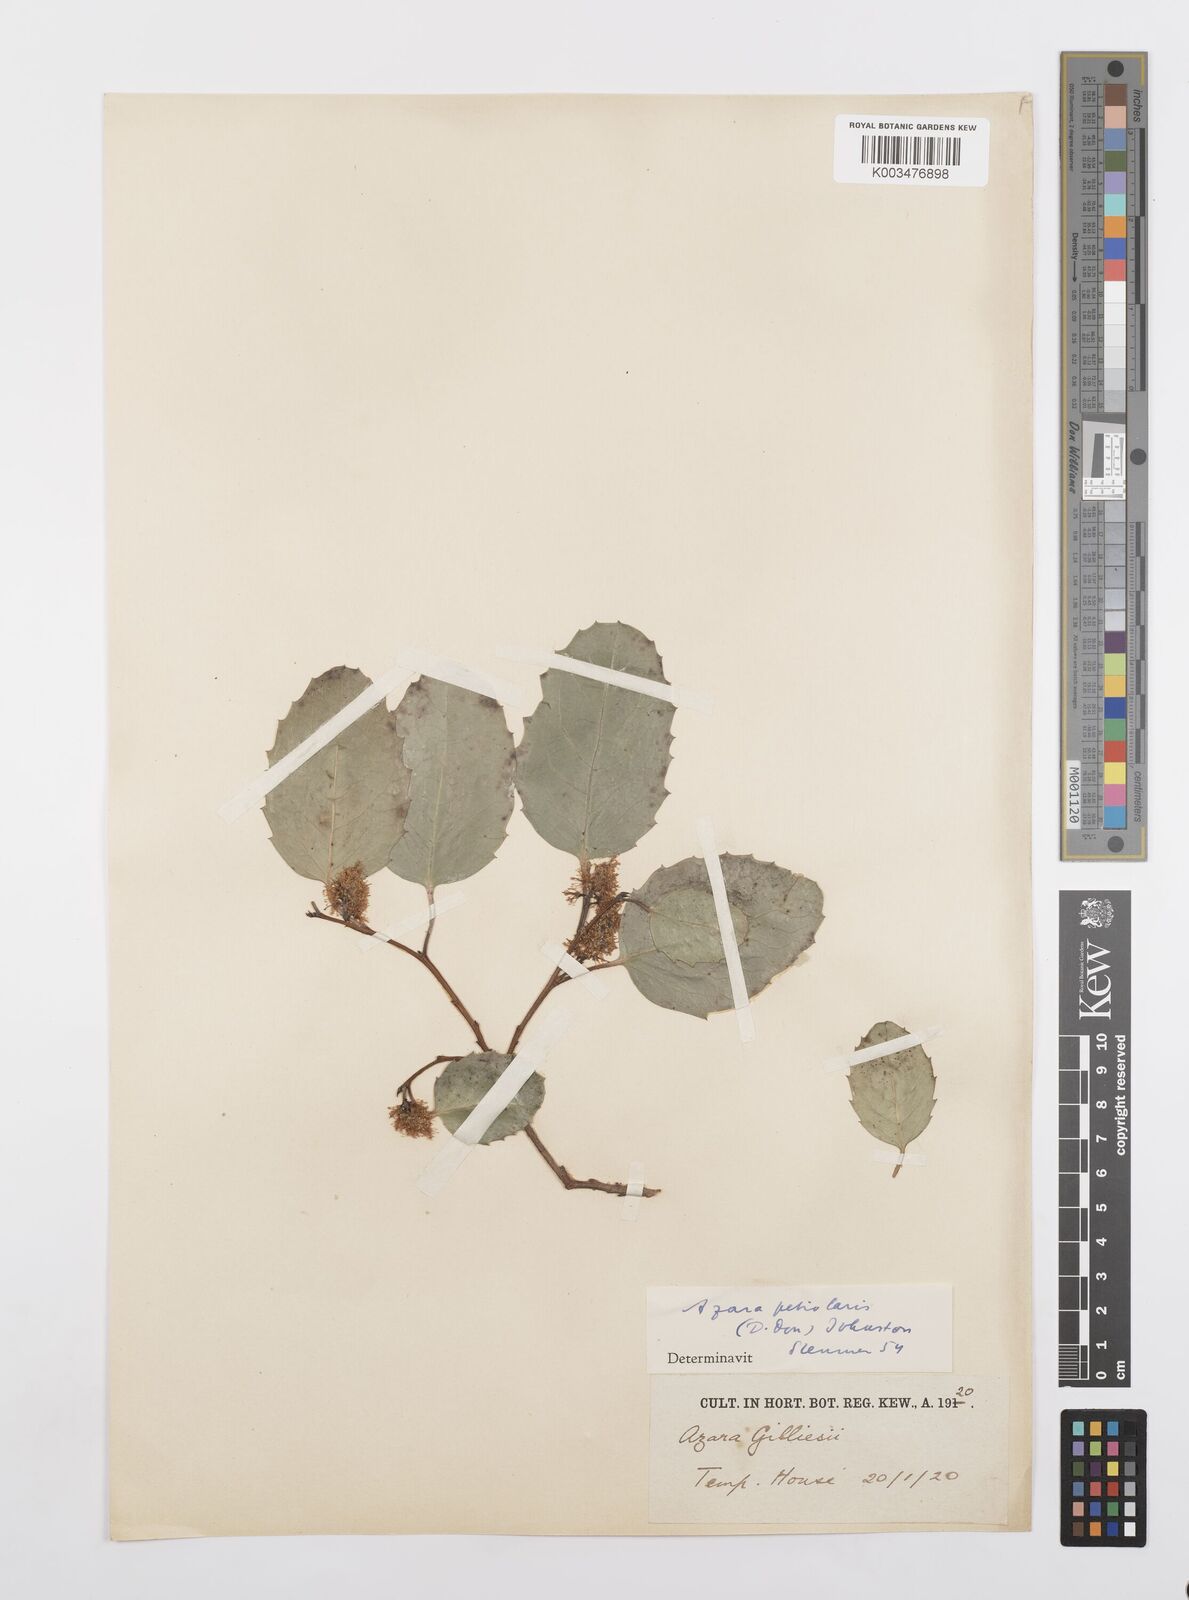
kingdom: Plantae
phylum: Tracheophyta
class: Magnoliopsida
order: Malpighiales
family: Salicaceae
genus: Azara
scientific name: Azara petiolaris
